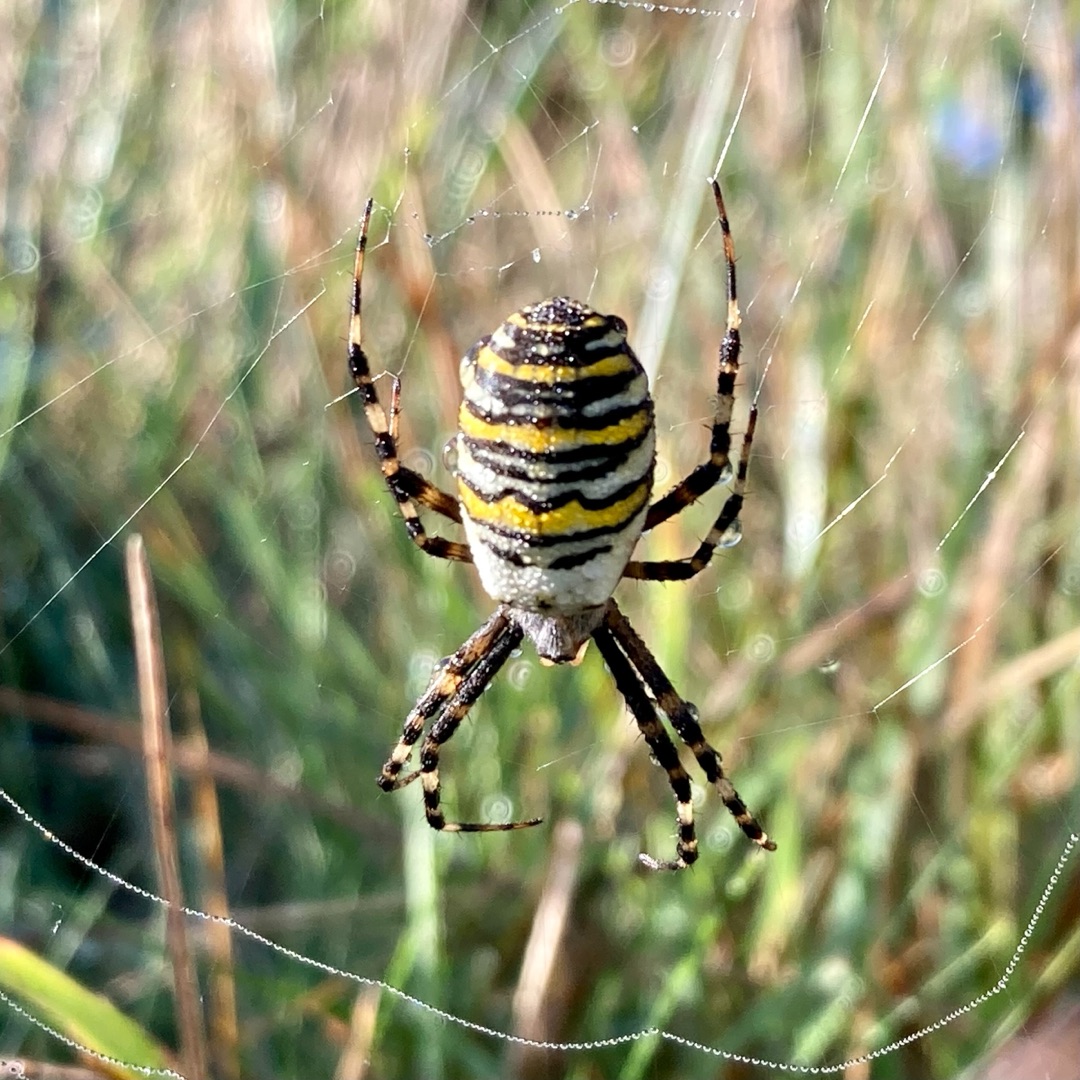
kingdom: Animalia
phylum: Arthropoda
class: Arachnida
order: Araneae
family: Araneidae
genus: Argiope
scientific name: Argiope bruennichi
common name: Hvepseedderkop
